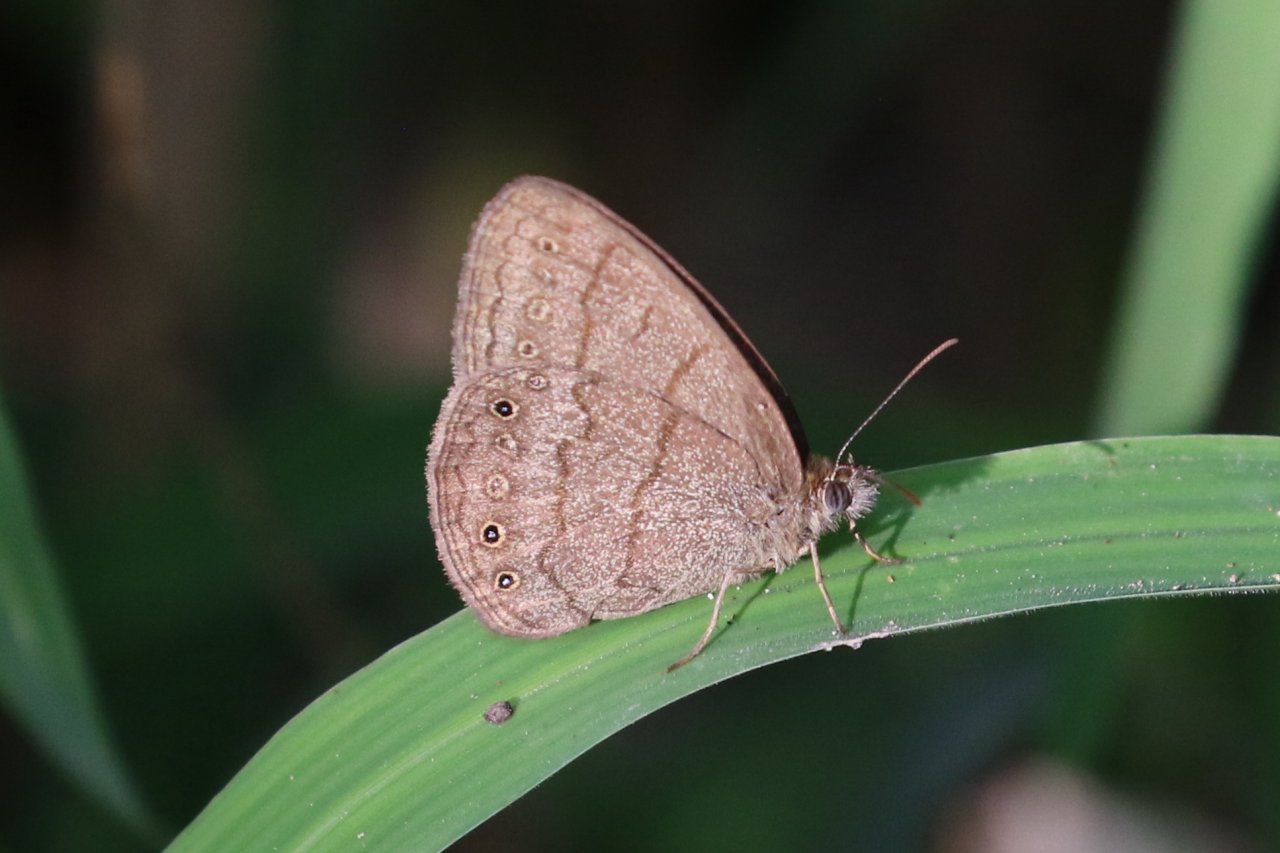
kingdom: Animalia
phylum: Arthropoda
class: Insecta
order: Lepidoptera
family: Nymphalidae
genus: Hermeuptychia
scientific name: Hermeuptychia hermybius
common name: South Texas Satyr
